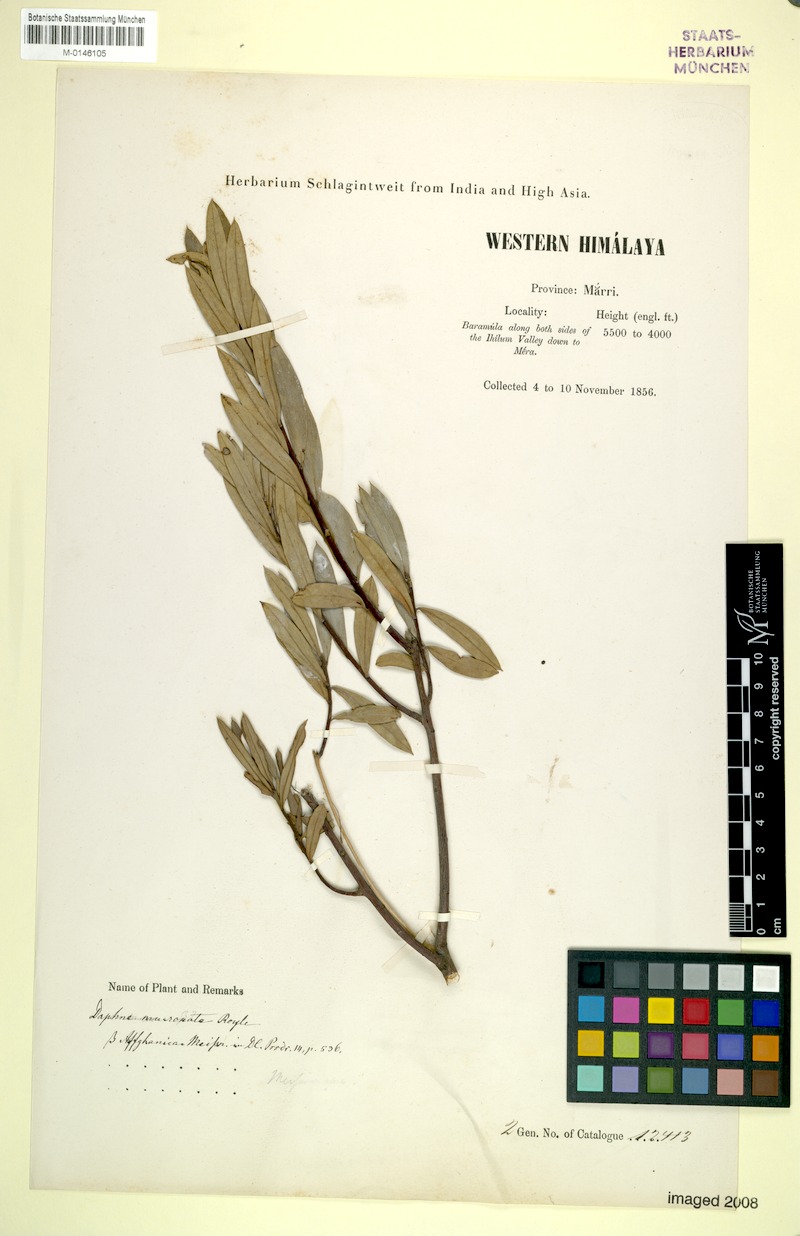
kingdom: Plantae
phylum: Tracheophyta
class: Magnoliopsida
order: Malvales
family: Thymelaeaceae
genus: Daphne
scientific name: Daphne mucronata
